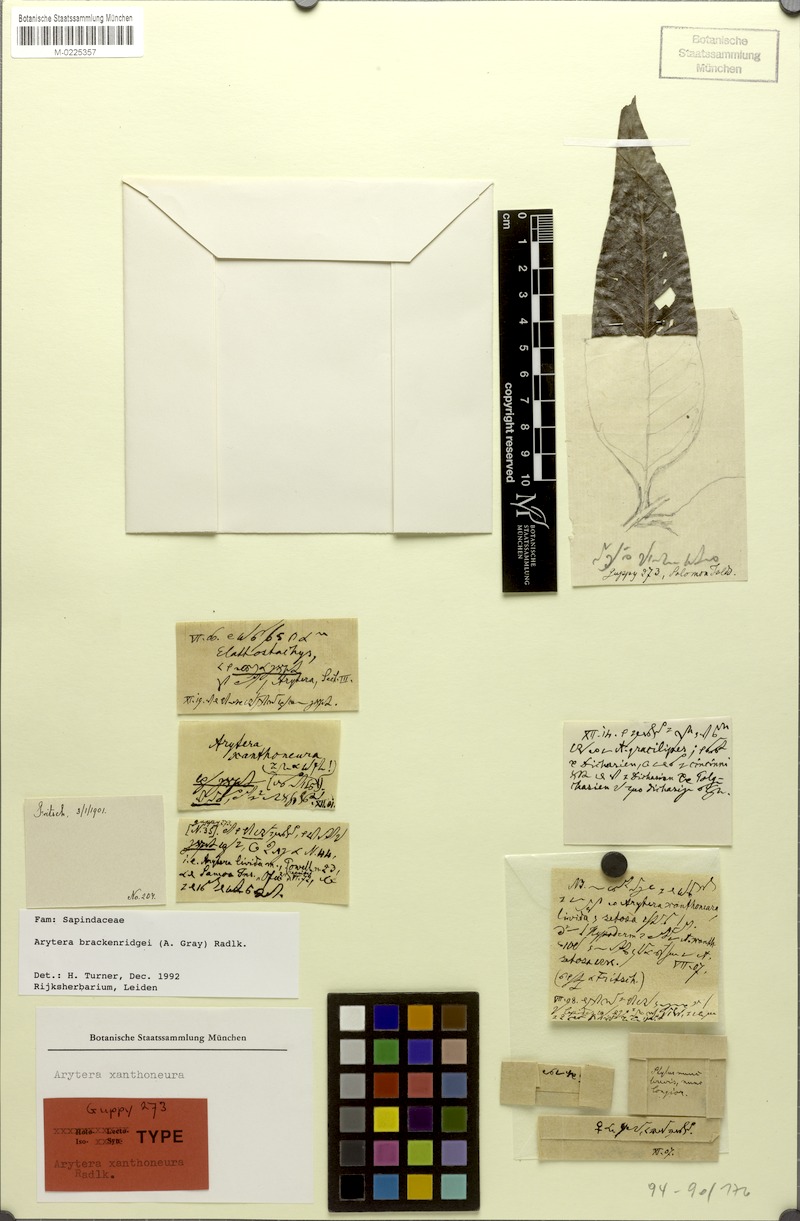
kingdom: Plantae
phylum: Tracheophyta
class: Magnoliopsida
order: Sapindales
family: Sapindaceae
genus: Lepidocupania
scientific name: Lepidocupania brackenridgei
